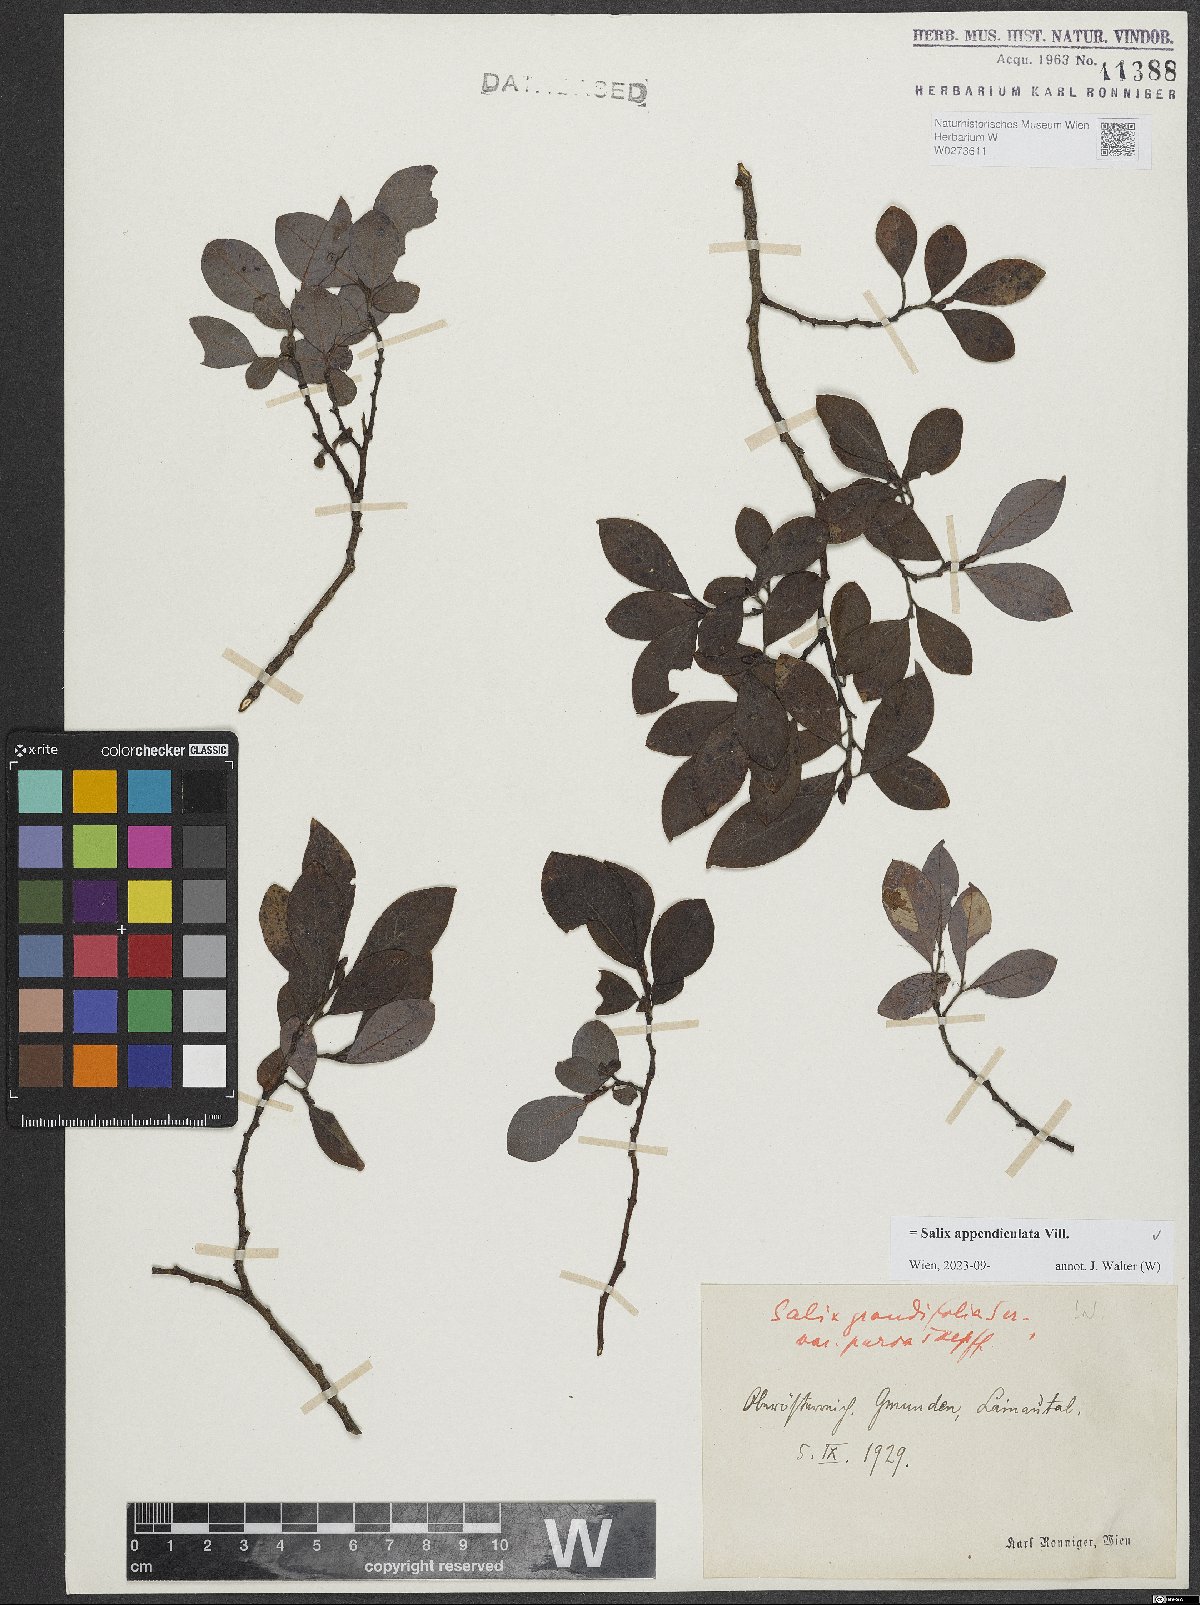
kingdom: Plantae
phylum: Tracheophyta
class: Magnoliopsida
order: Malpighiales
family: Salicaceae
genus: Salix
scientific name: Salix appendiculata
